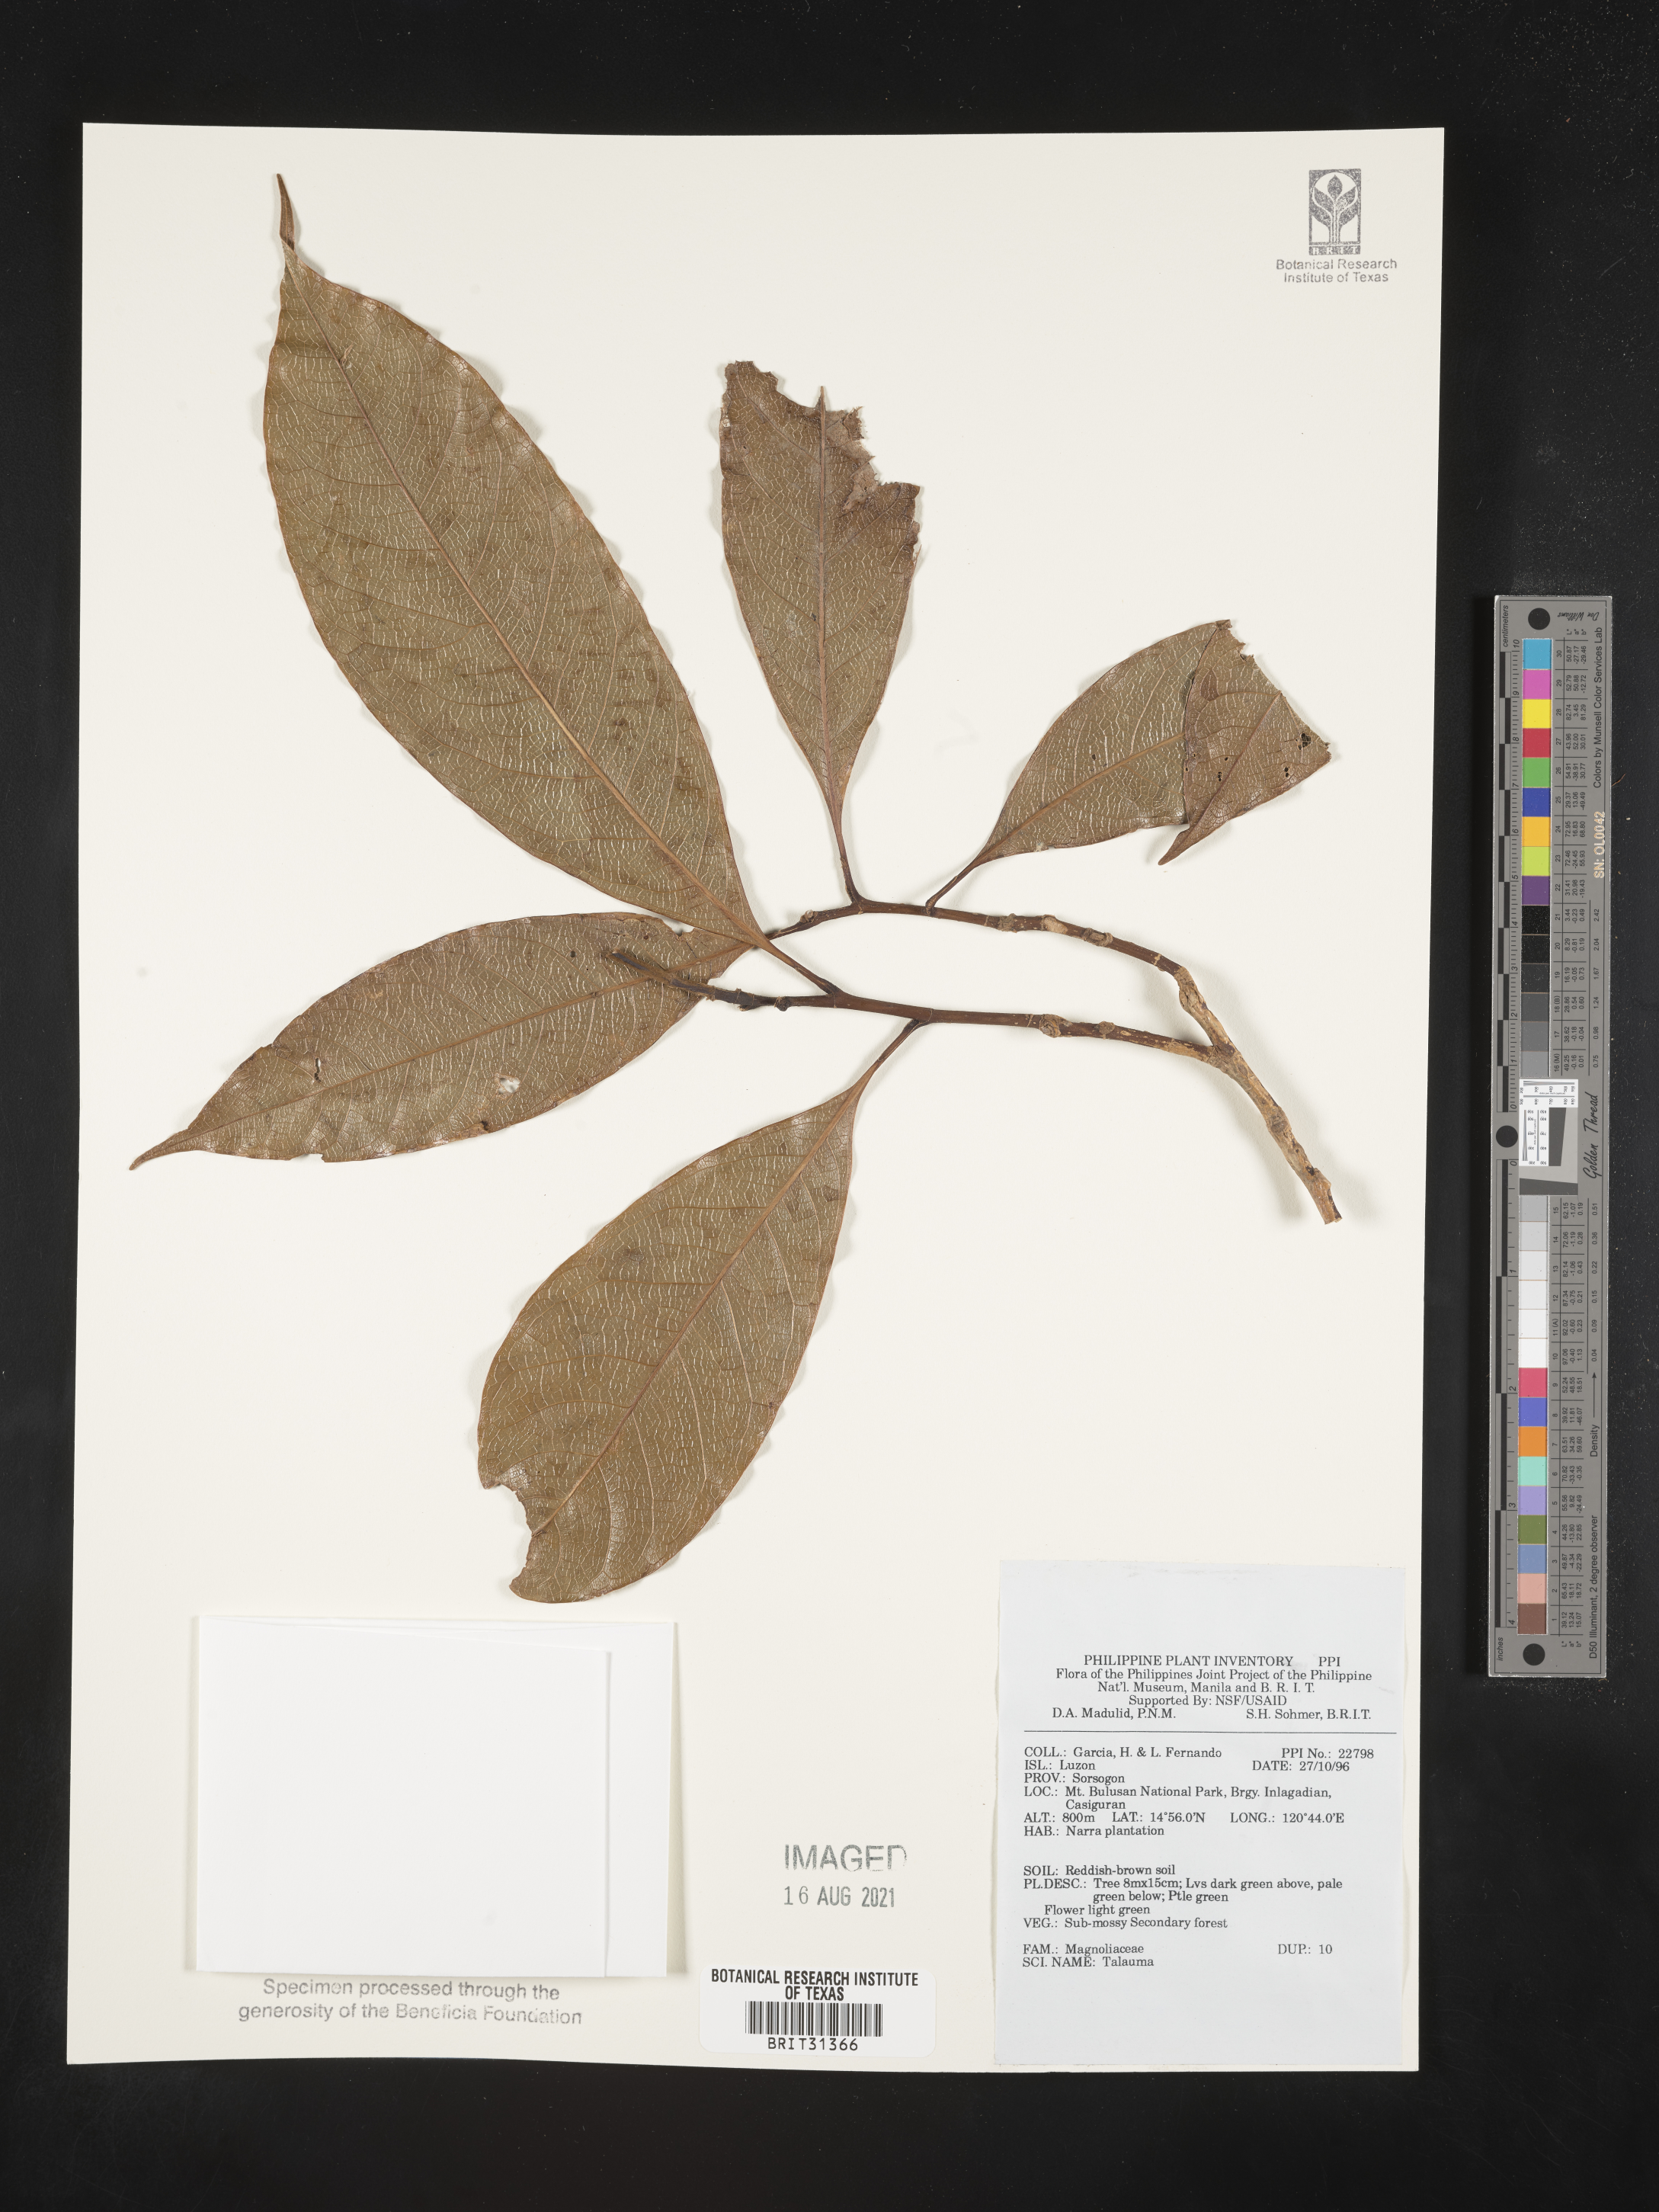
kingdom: Plantae
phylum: Tracheophyta
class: Magnoliopsida
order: Magnoliales
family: Magnoliaceae
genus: Magnolia
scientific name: Magnolia Talauma spec
